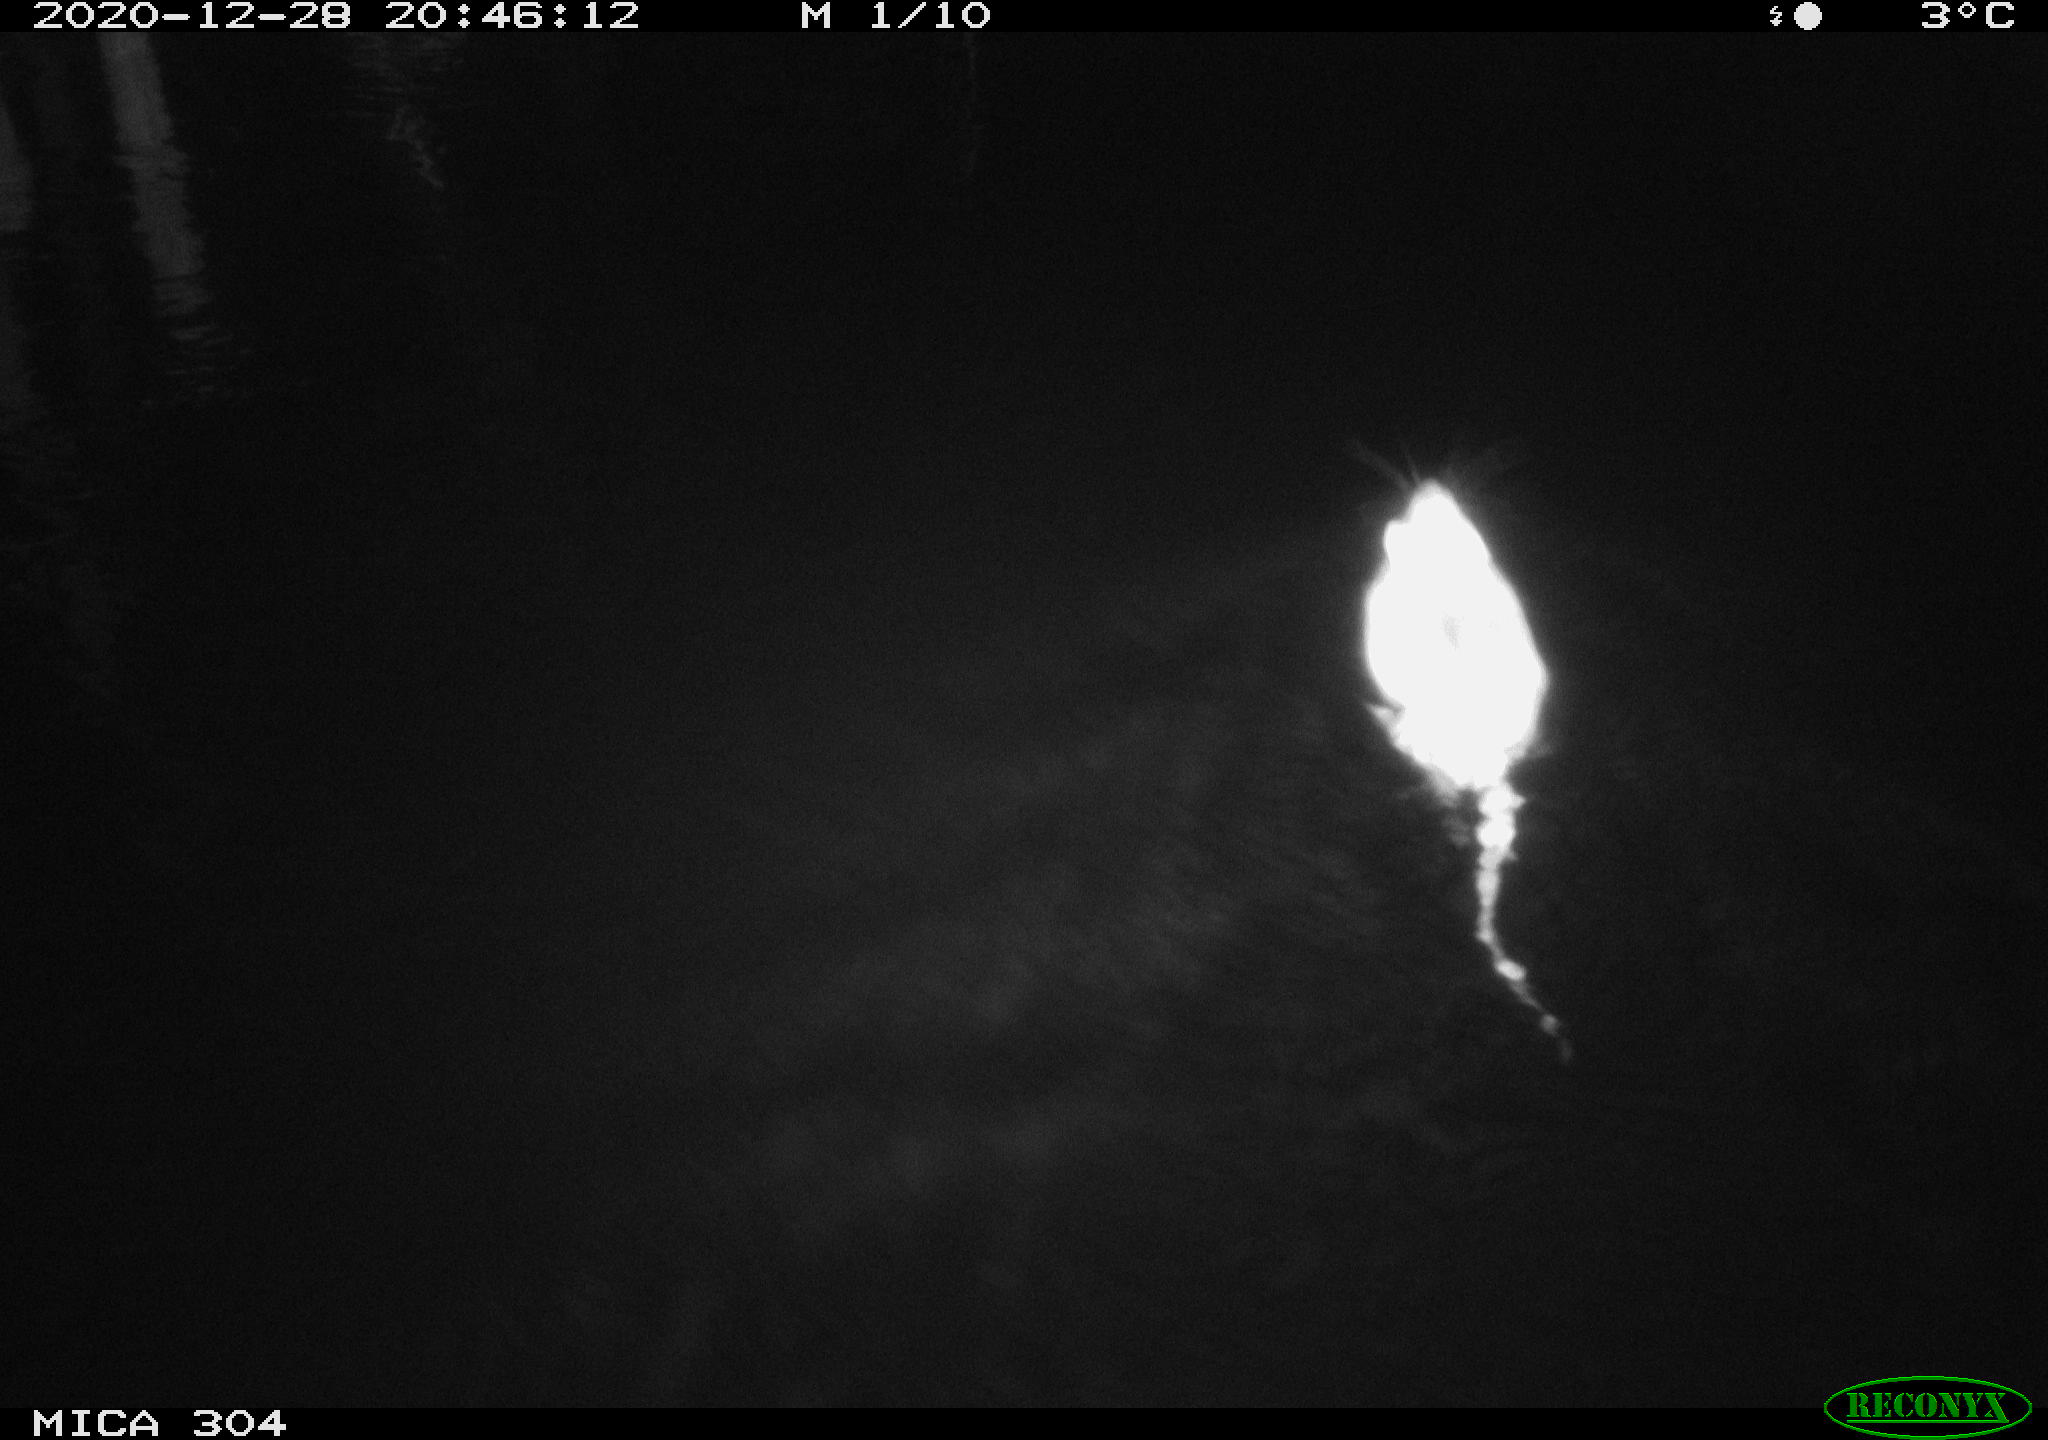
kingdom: Animalia
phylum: Chordata
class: Mammalia
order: Rodentia
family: Muridae
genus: Rattus
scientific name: Rattus norvegicus
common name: Brown rat
